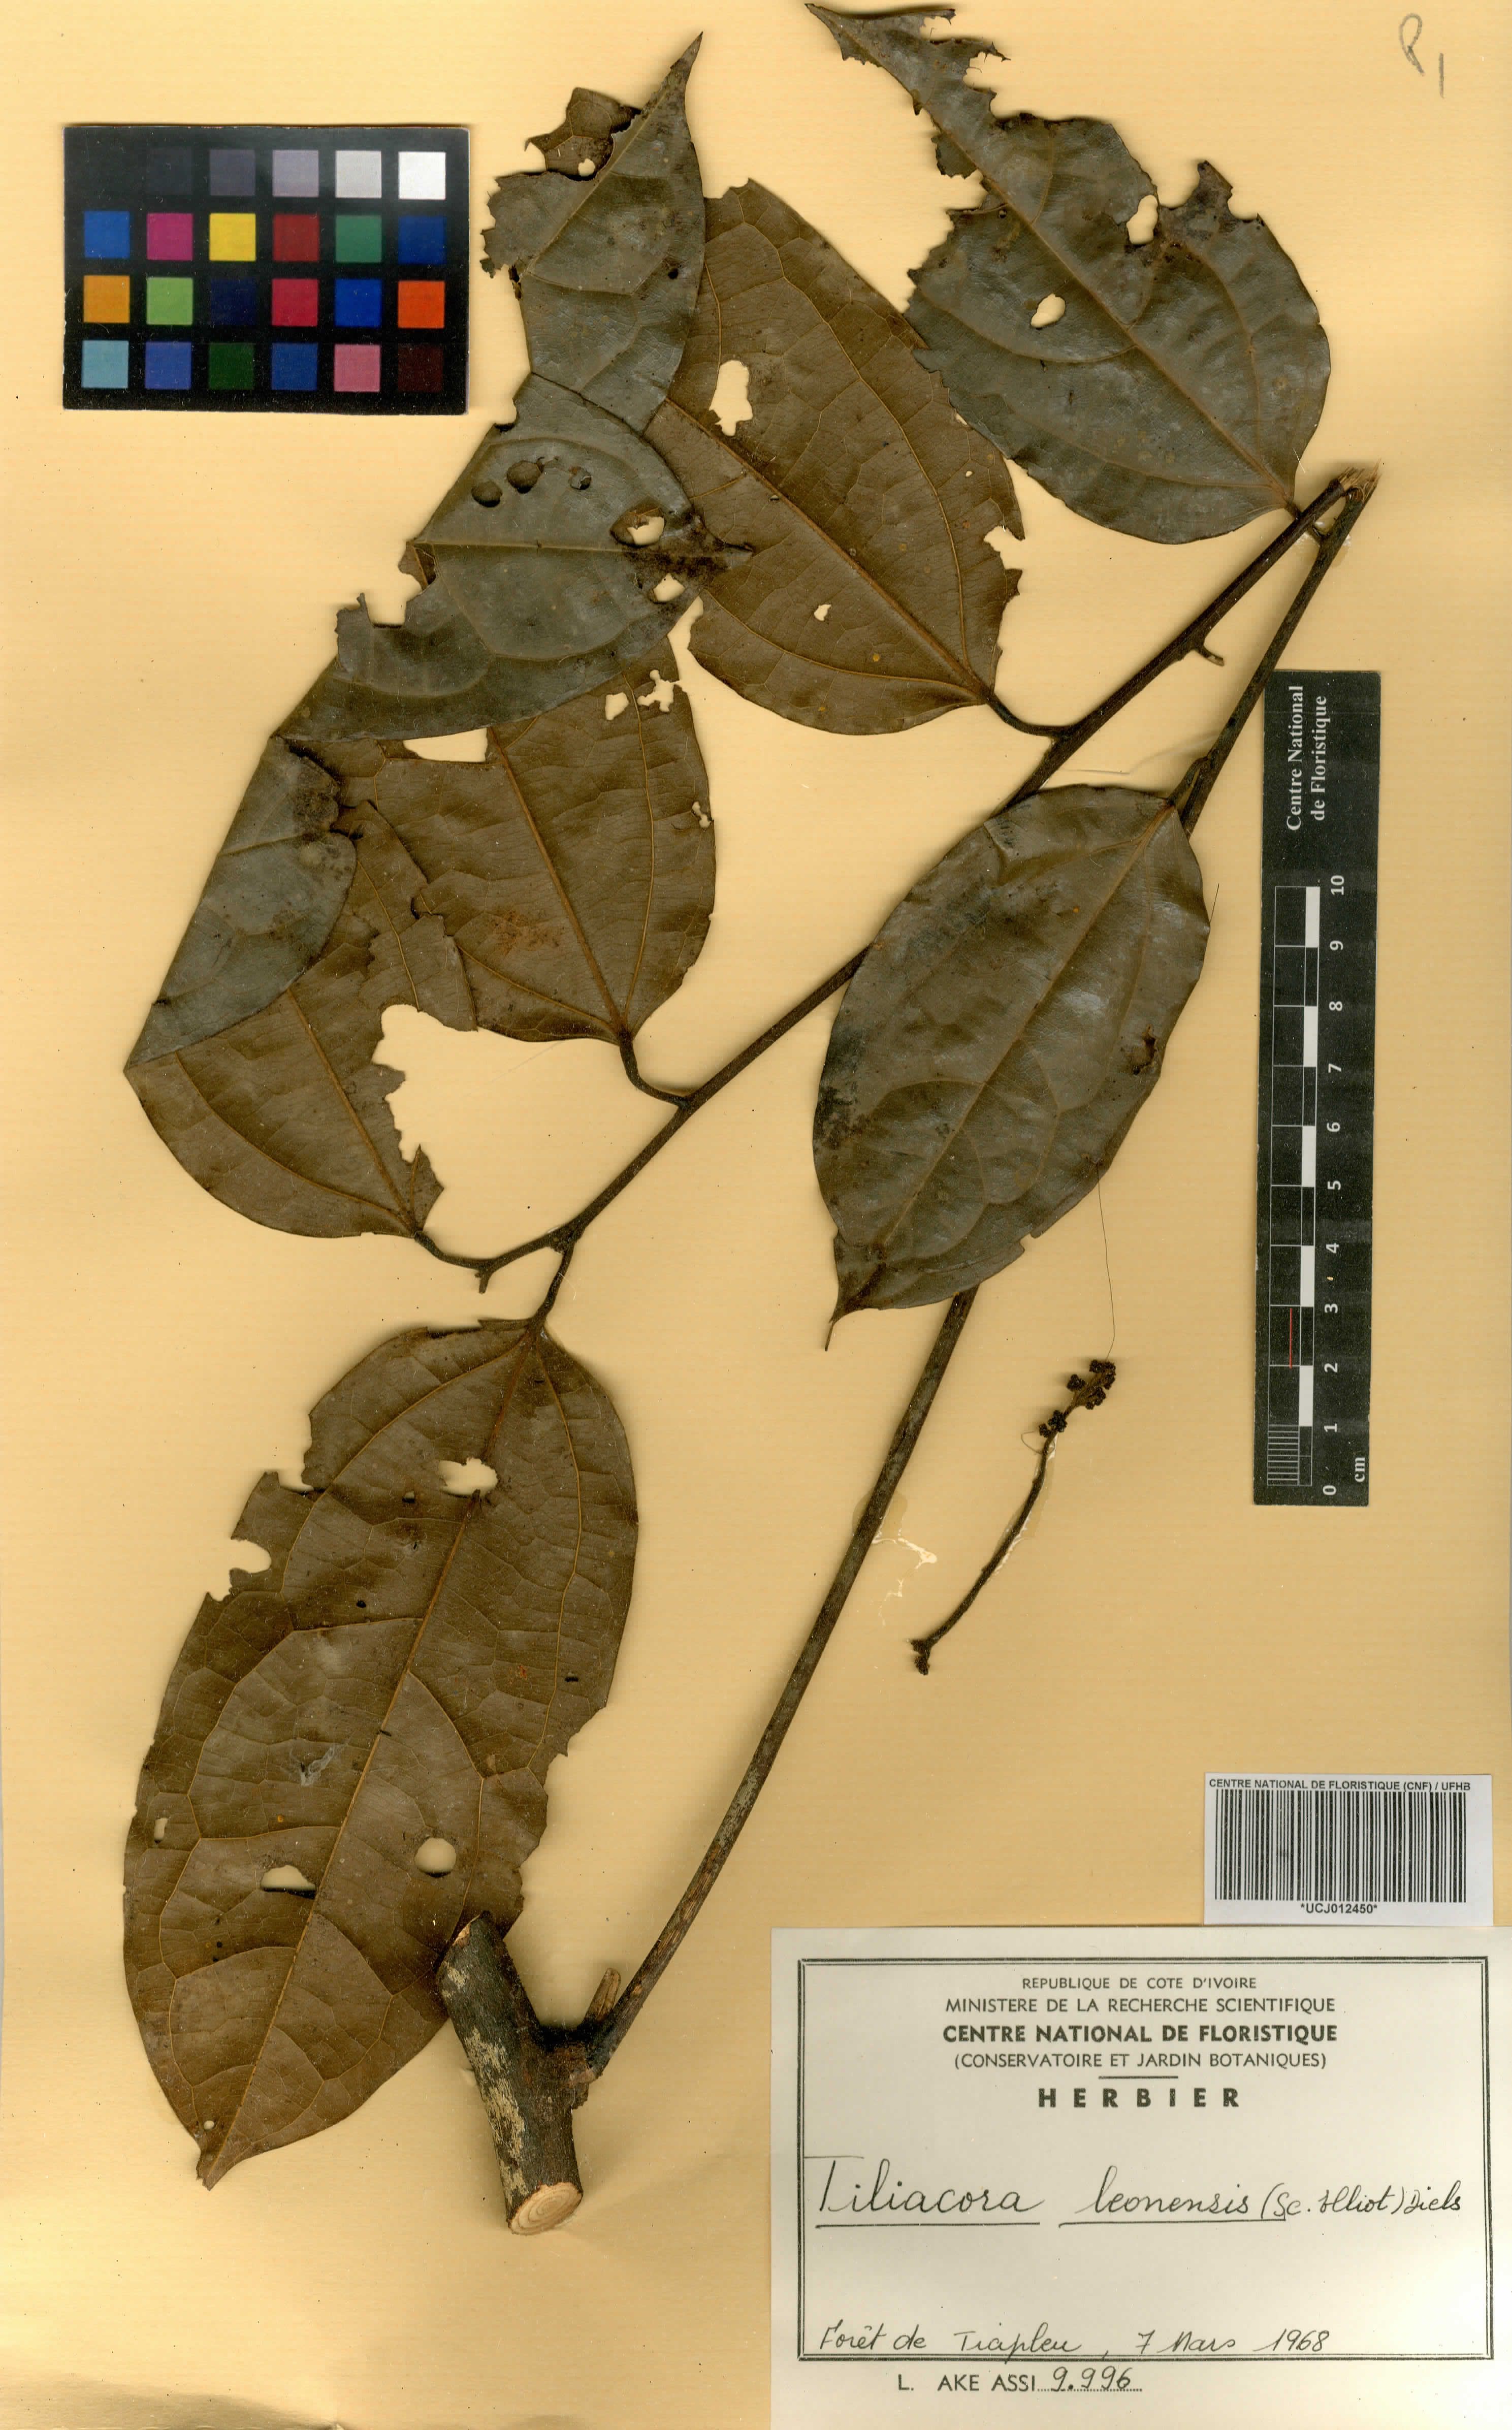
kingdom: Plantae
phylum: Tracheophyta
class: Magnoliopsida
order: Ranunculales
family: Menispermaceae
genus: Tiliacora
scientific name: Tiliacora leonensis
